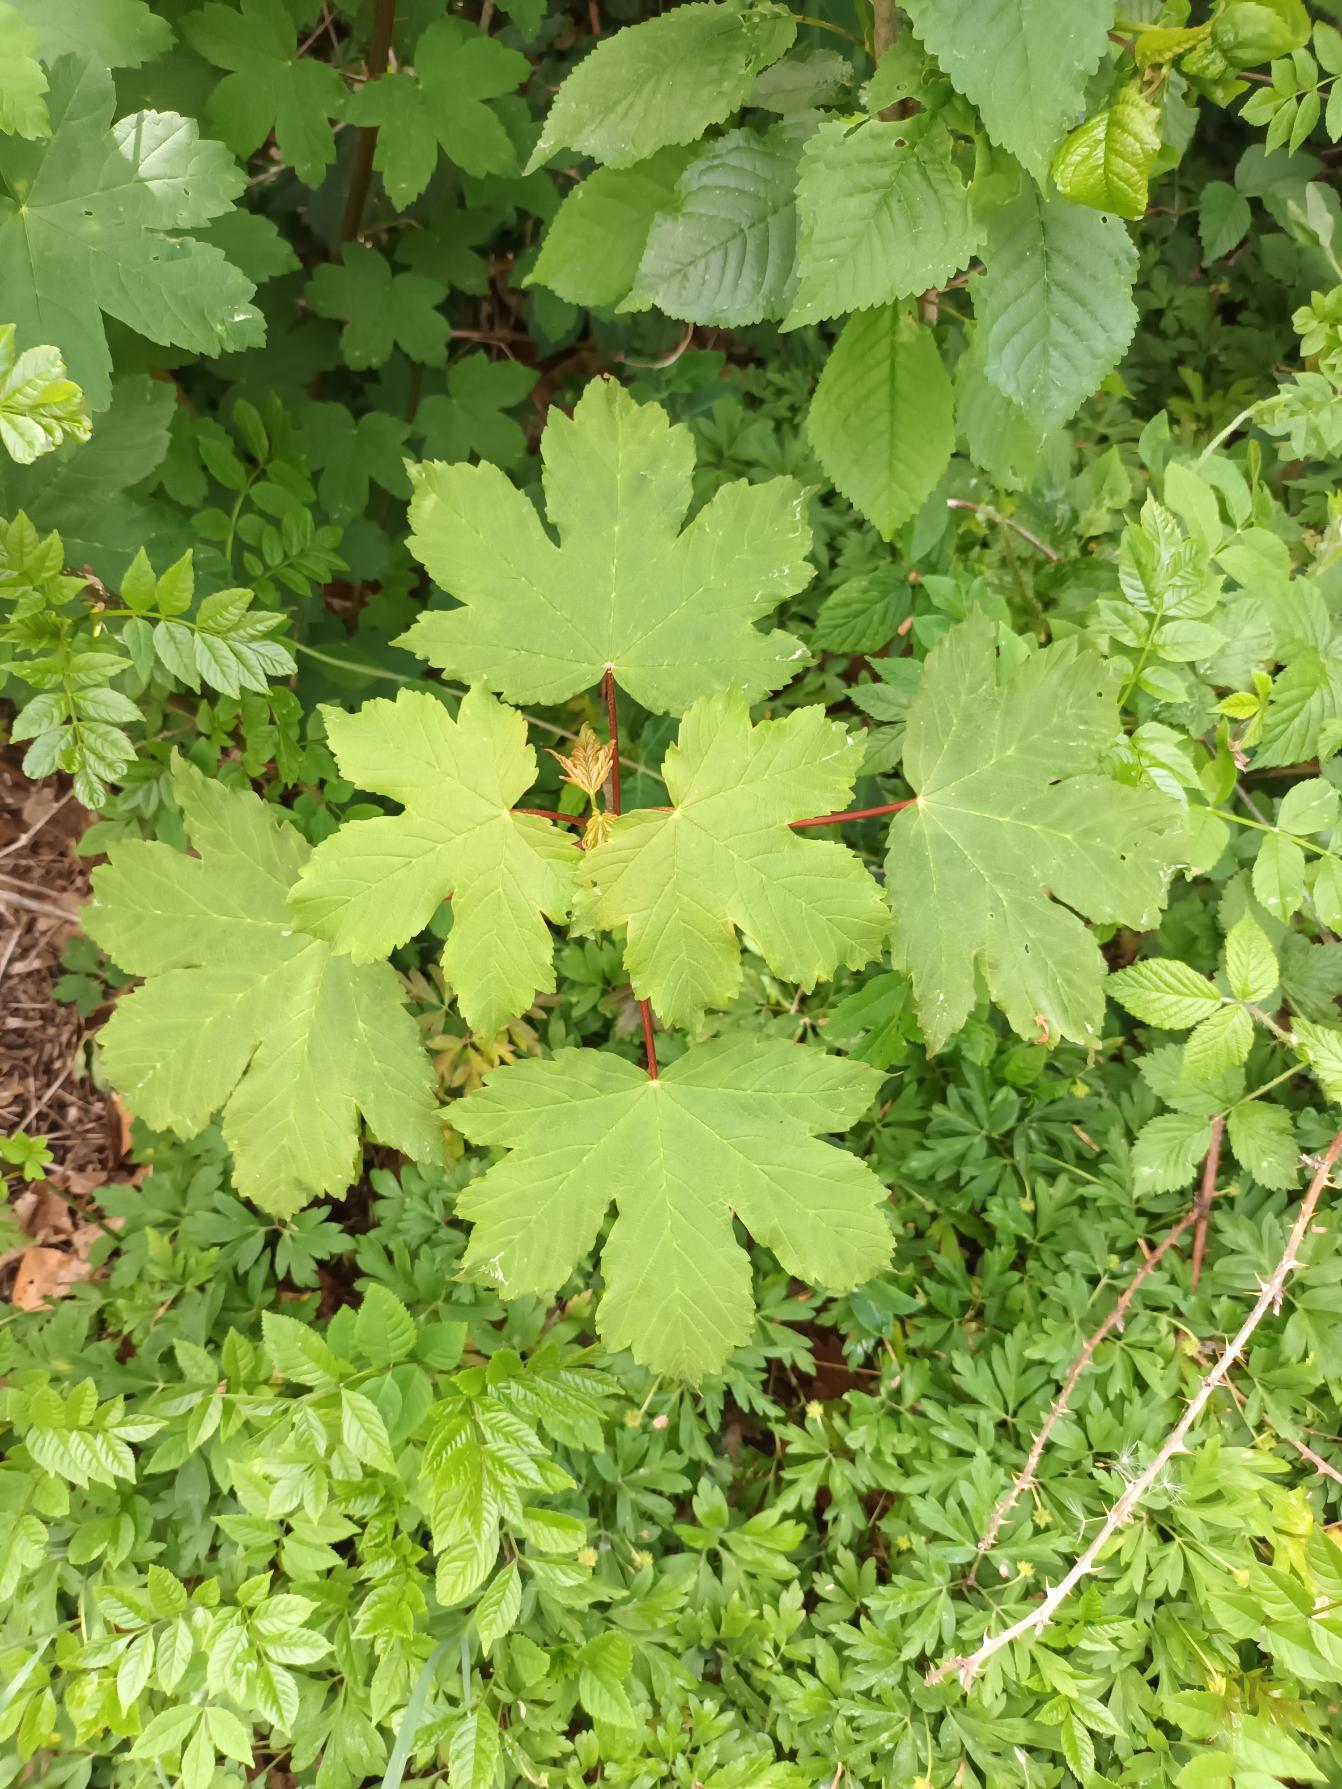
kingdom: Plantae
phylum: Tracheophyta
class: Magnoliopsida
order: Sapindales
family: Sapindaceae
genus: Acer
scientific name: Acer pseudoplatanus
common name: Ahorn
